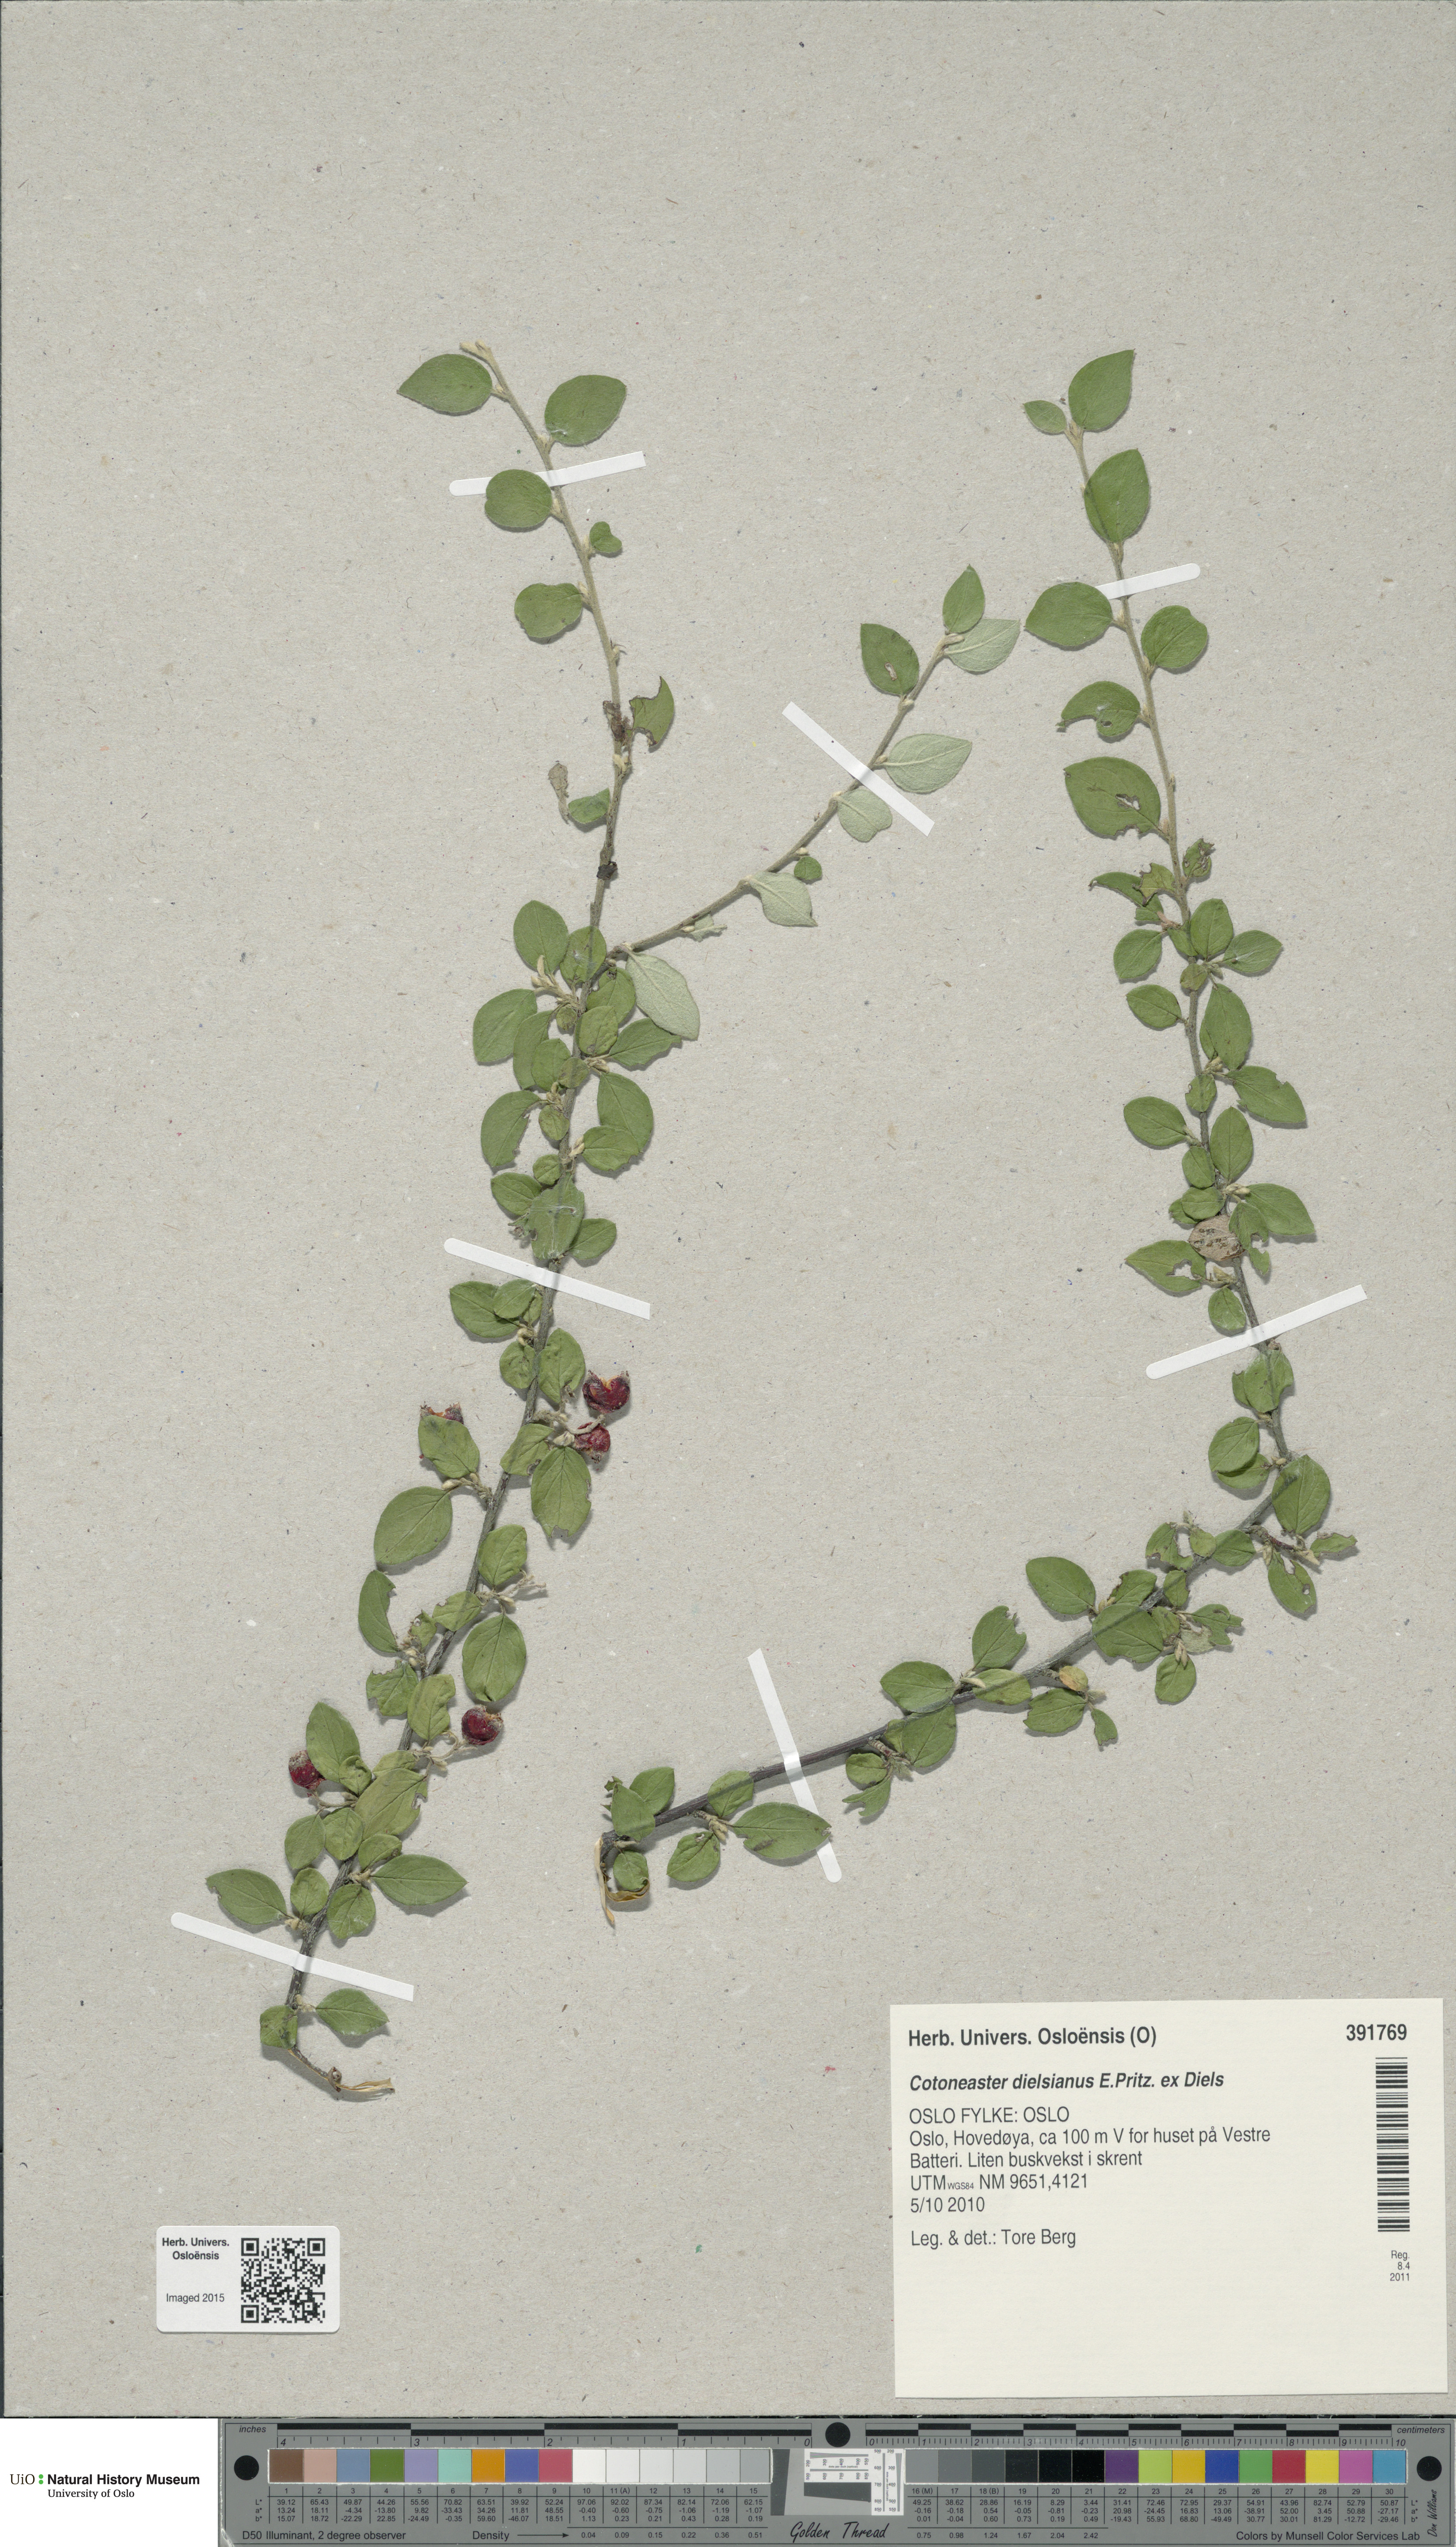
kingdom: Plantae
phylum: Tracheophyta
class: Magnoliopsida
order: Rosales
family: Rosaceae
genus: Cotoneaster
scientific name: Cotoneaster dielsianus
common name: Diels's cotoneaster
